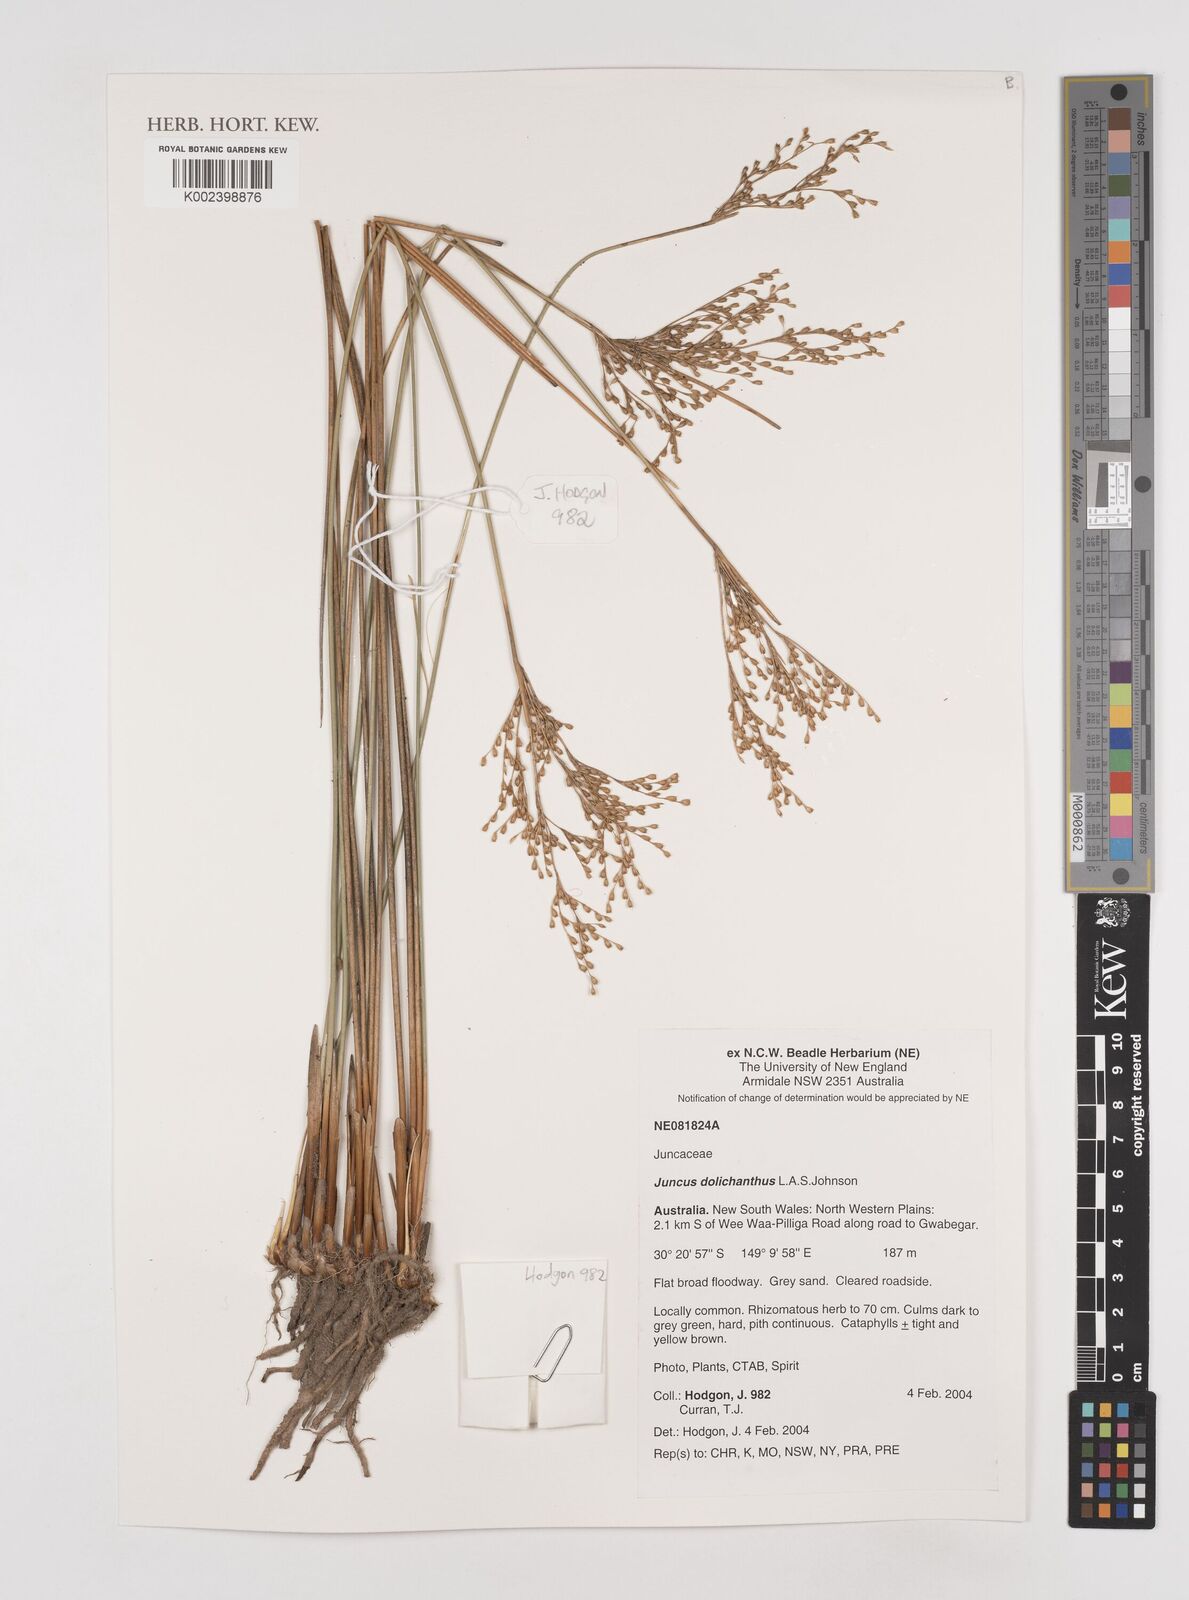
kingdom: Plantae
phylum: Tracheophyta
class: Liliopsida
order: Poales
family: Juncaceae
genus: Juncus
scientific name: Juncus dolichanthus
